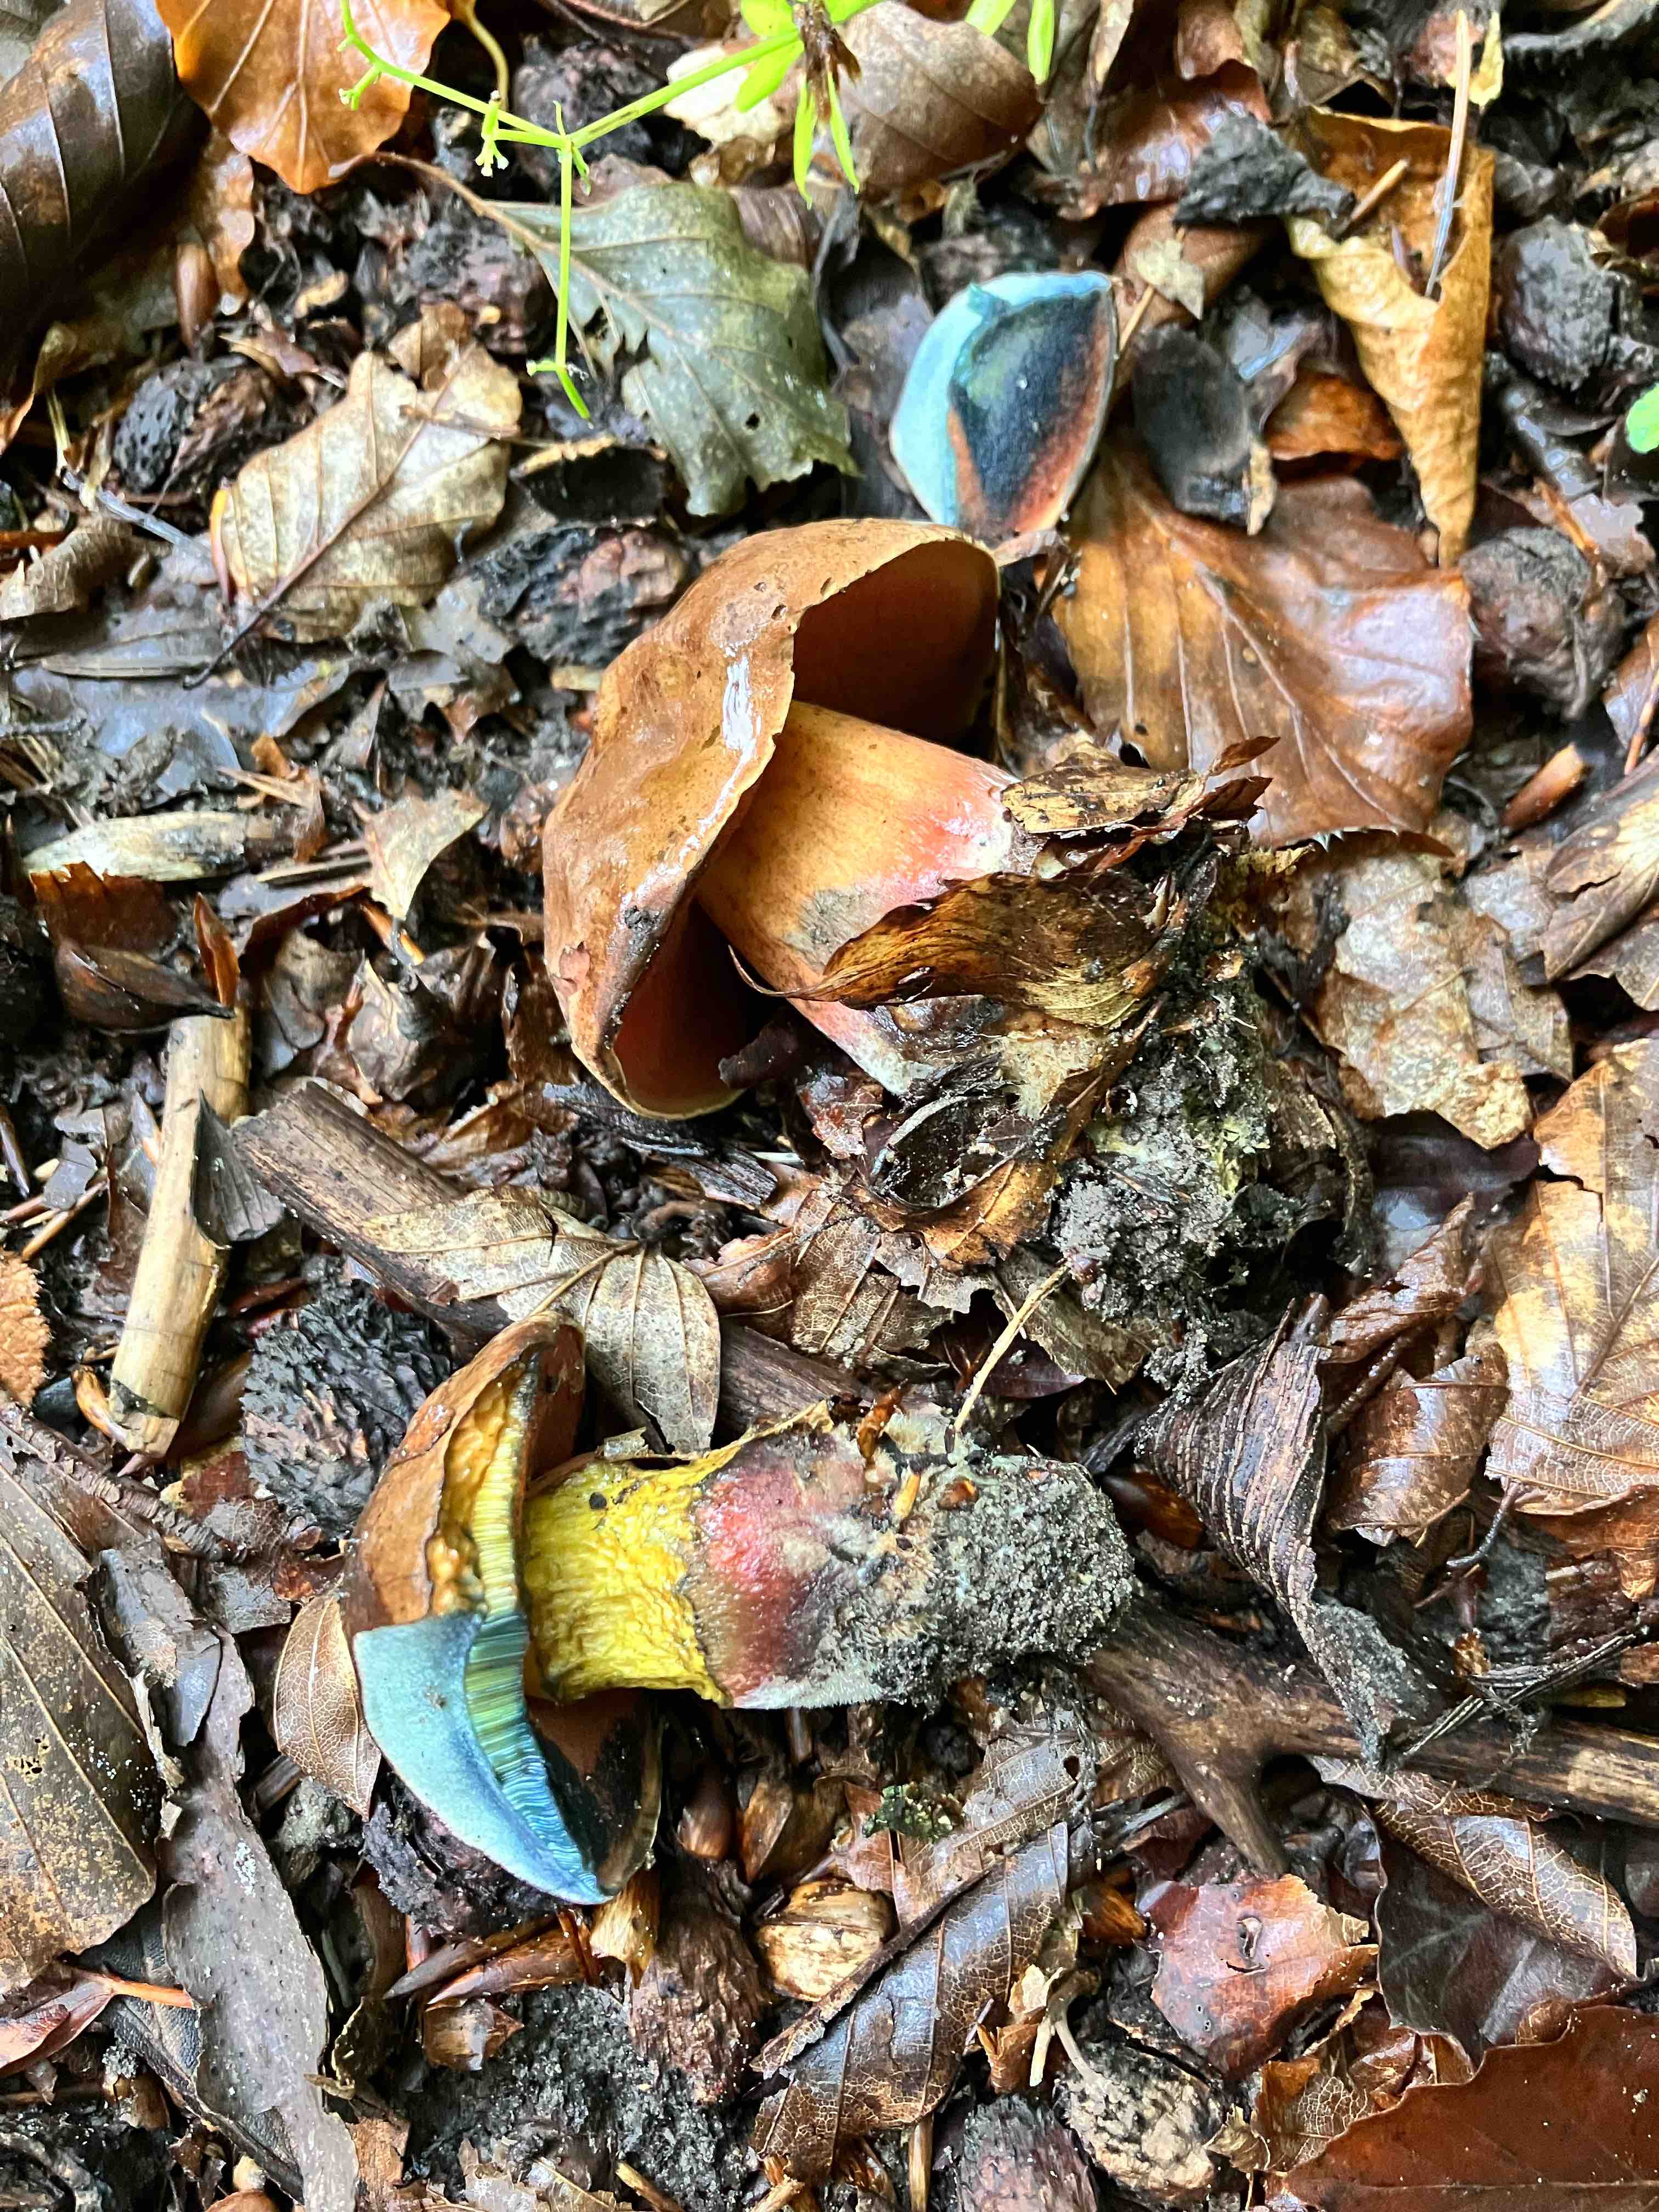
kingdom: Fungi
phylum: Basidiomycota
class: Agaricomycetes
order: Boletales
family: Boletaceae
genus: Neoboletus
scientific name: Neoboletus
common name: indigorørhat
